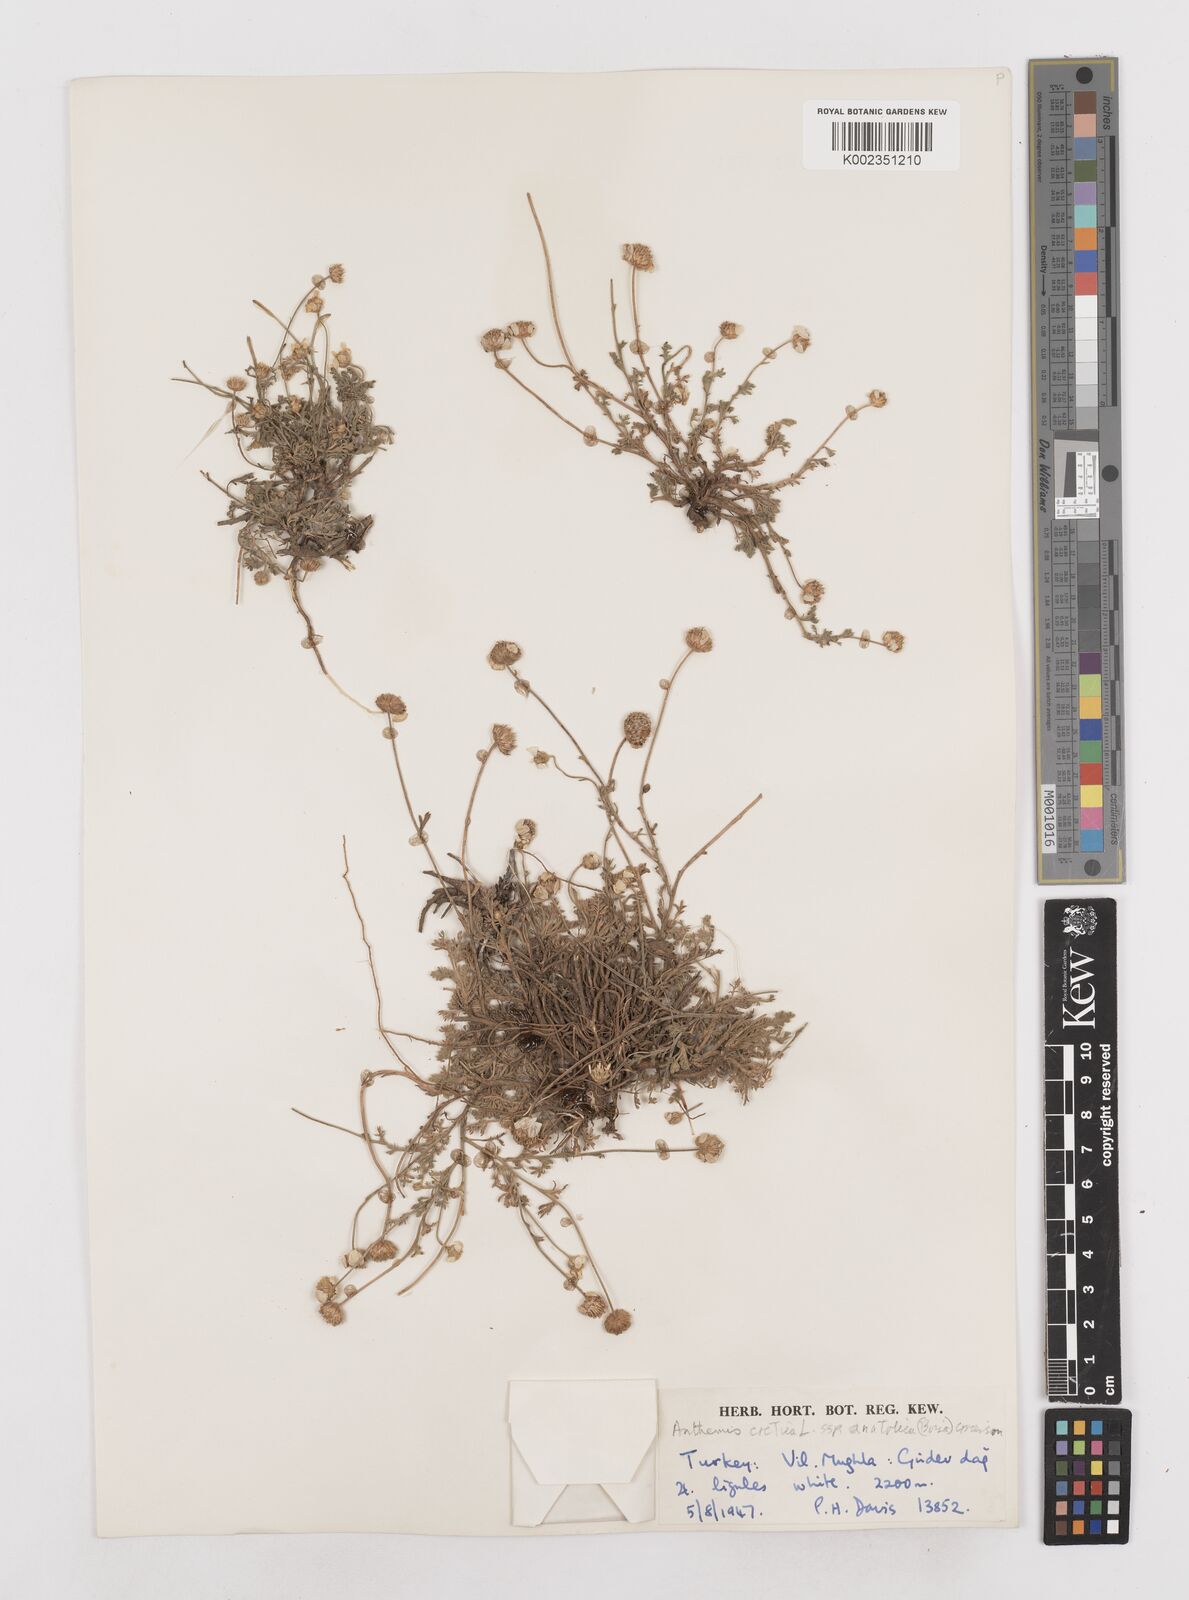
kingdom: Plantae
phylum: Tracheophyta
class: Magnoliopsida
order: Asterales
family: Asteraceae
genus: Anthemis
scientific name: Anthemis cretica
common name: Mountain dog-daisy
